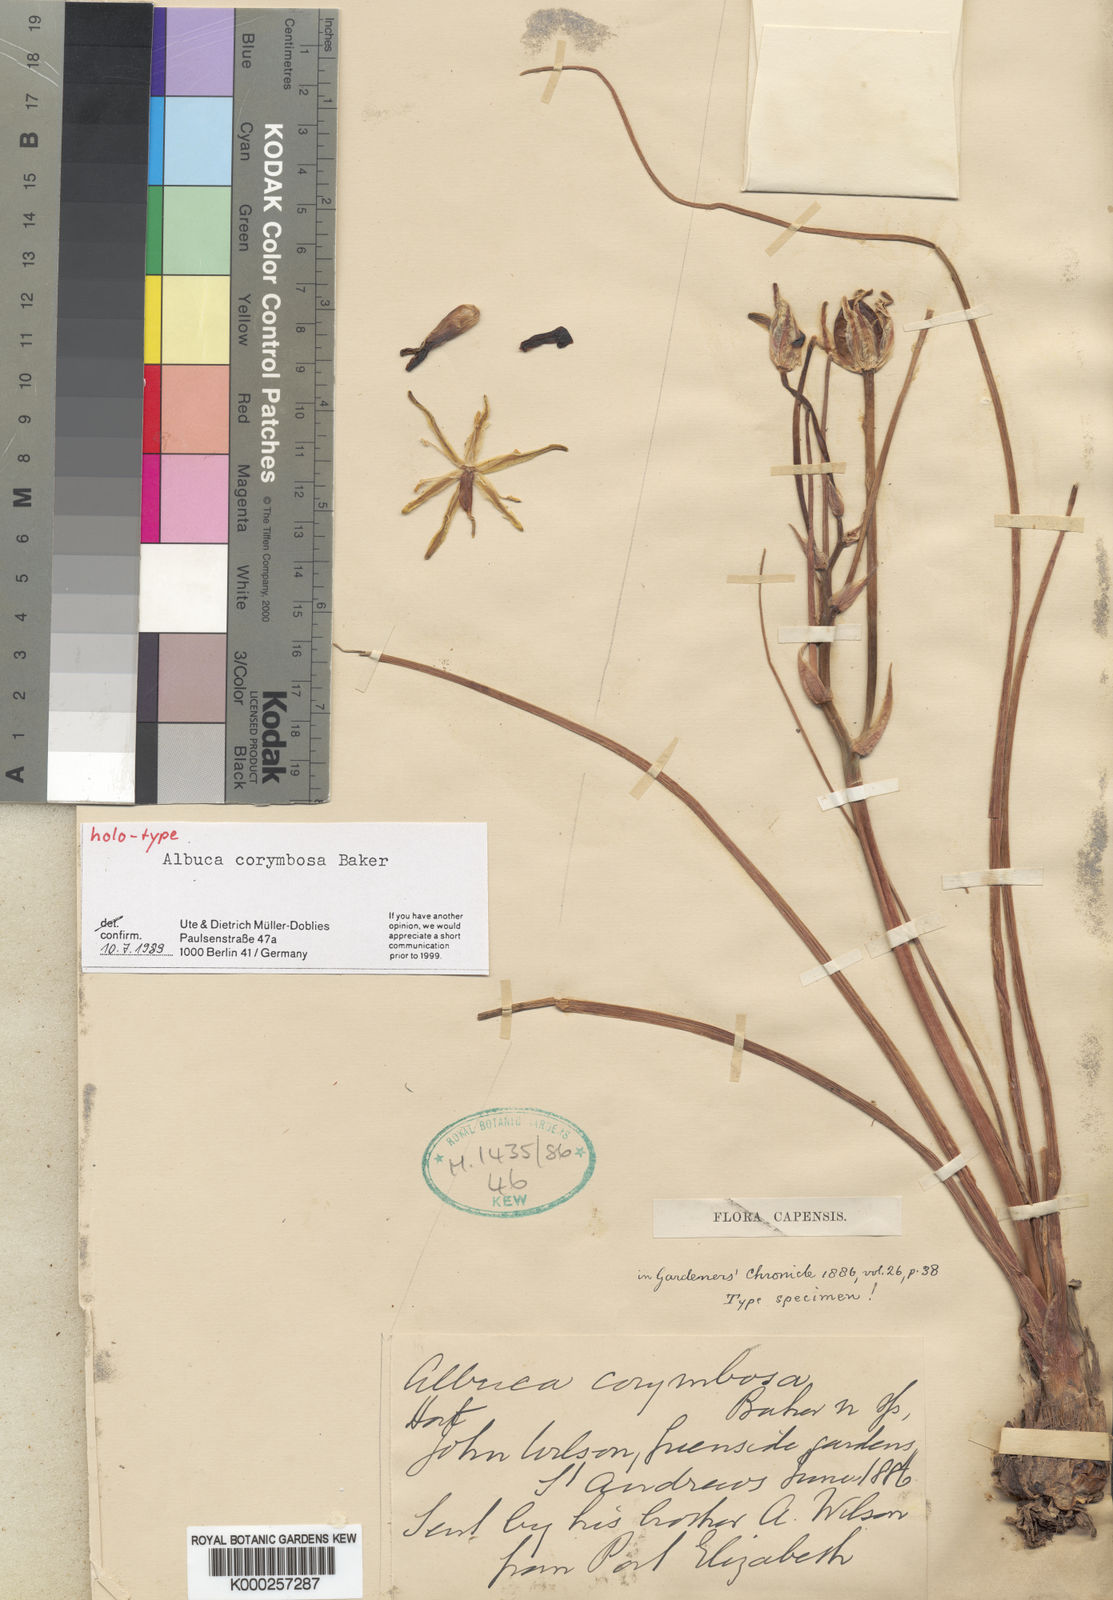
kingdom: Plantae
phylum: Tracheophyta
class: Liliopsida
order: Asparagales
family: Asparagaceae
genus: Albuca
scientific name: Albuca corymbosa
